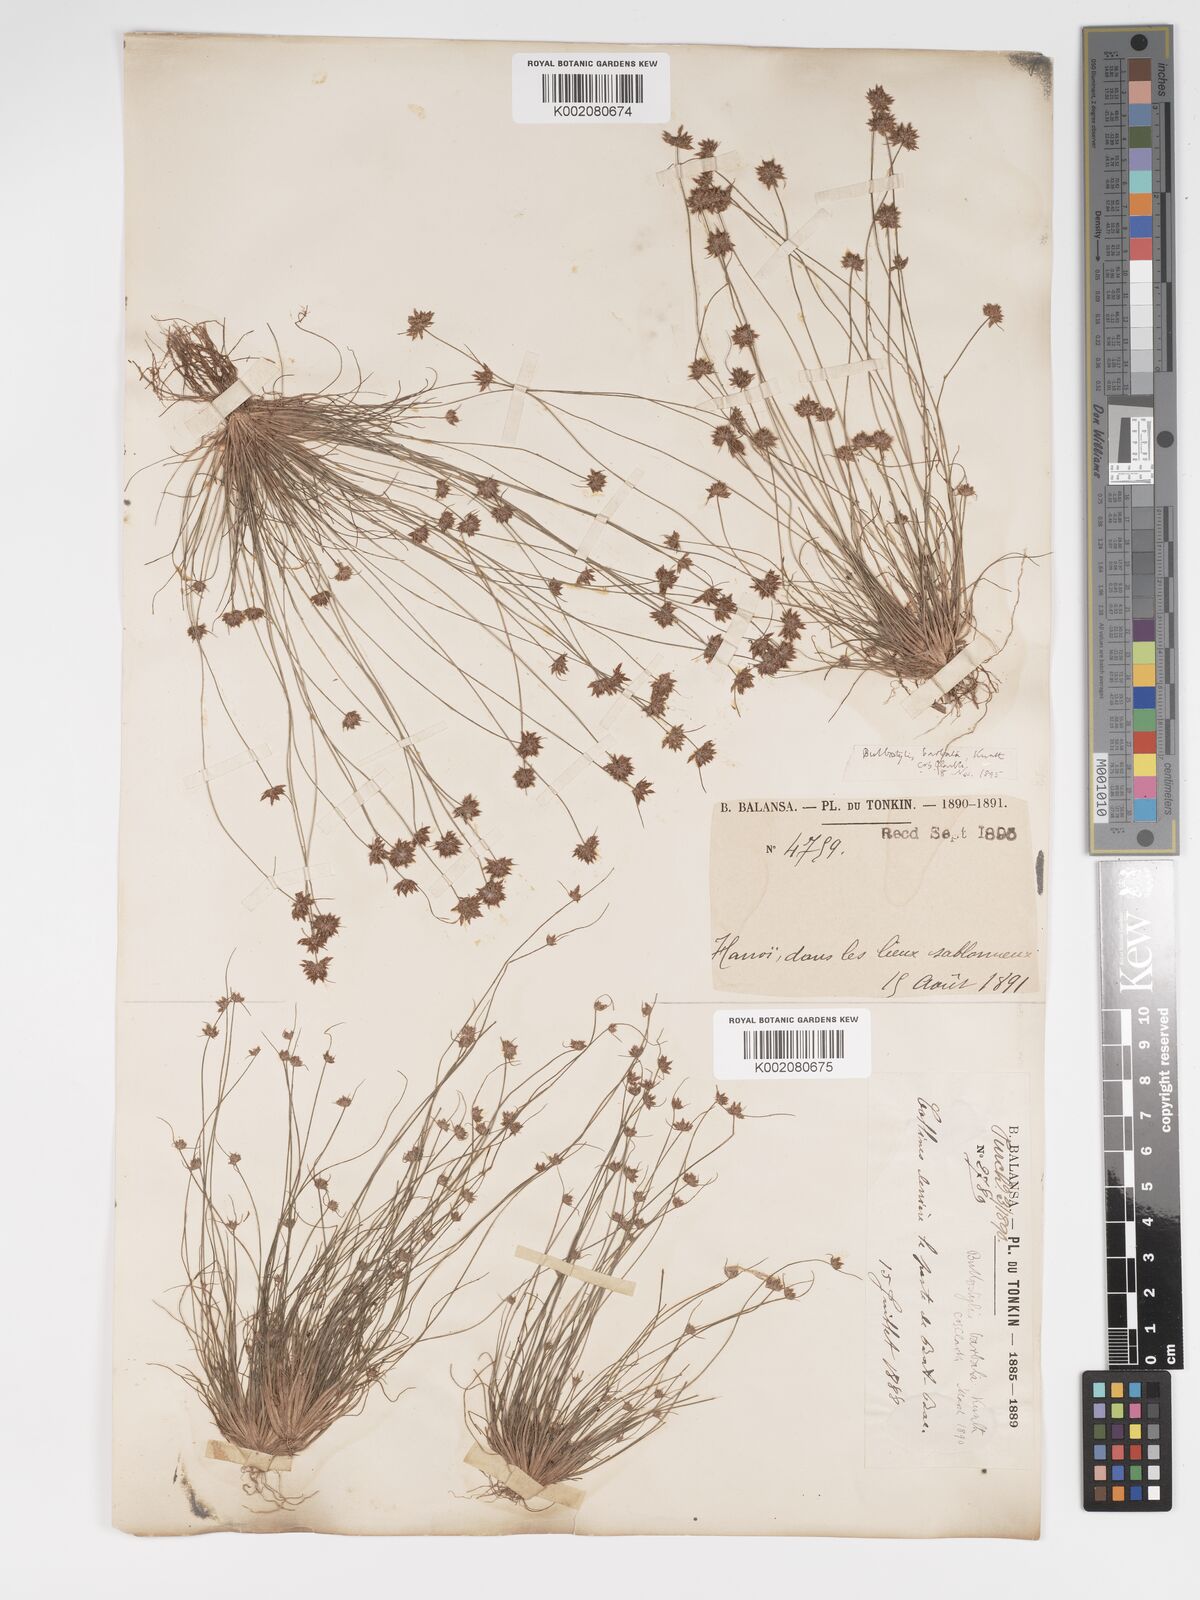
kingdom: Plantae
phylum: Tracheophyta
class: Liliopsida
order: Poales
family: Cyperaceae
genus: Bulbostylis
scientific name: Bulbostylis barbata
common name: Watergrass
